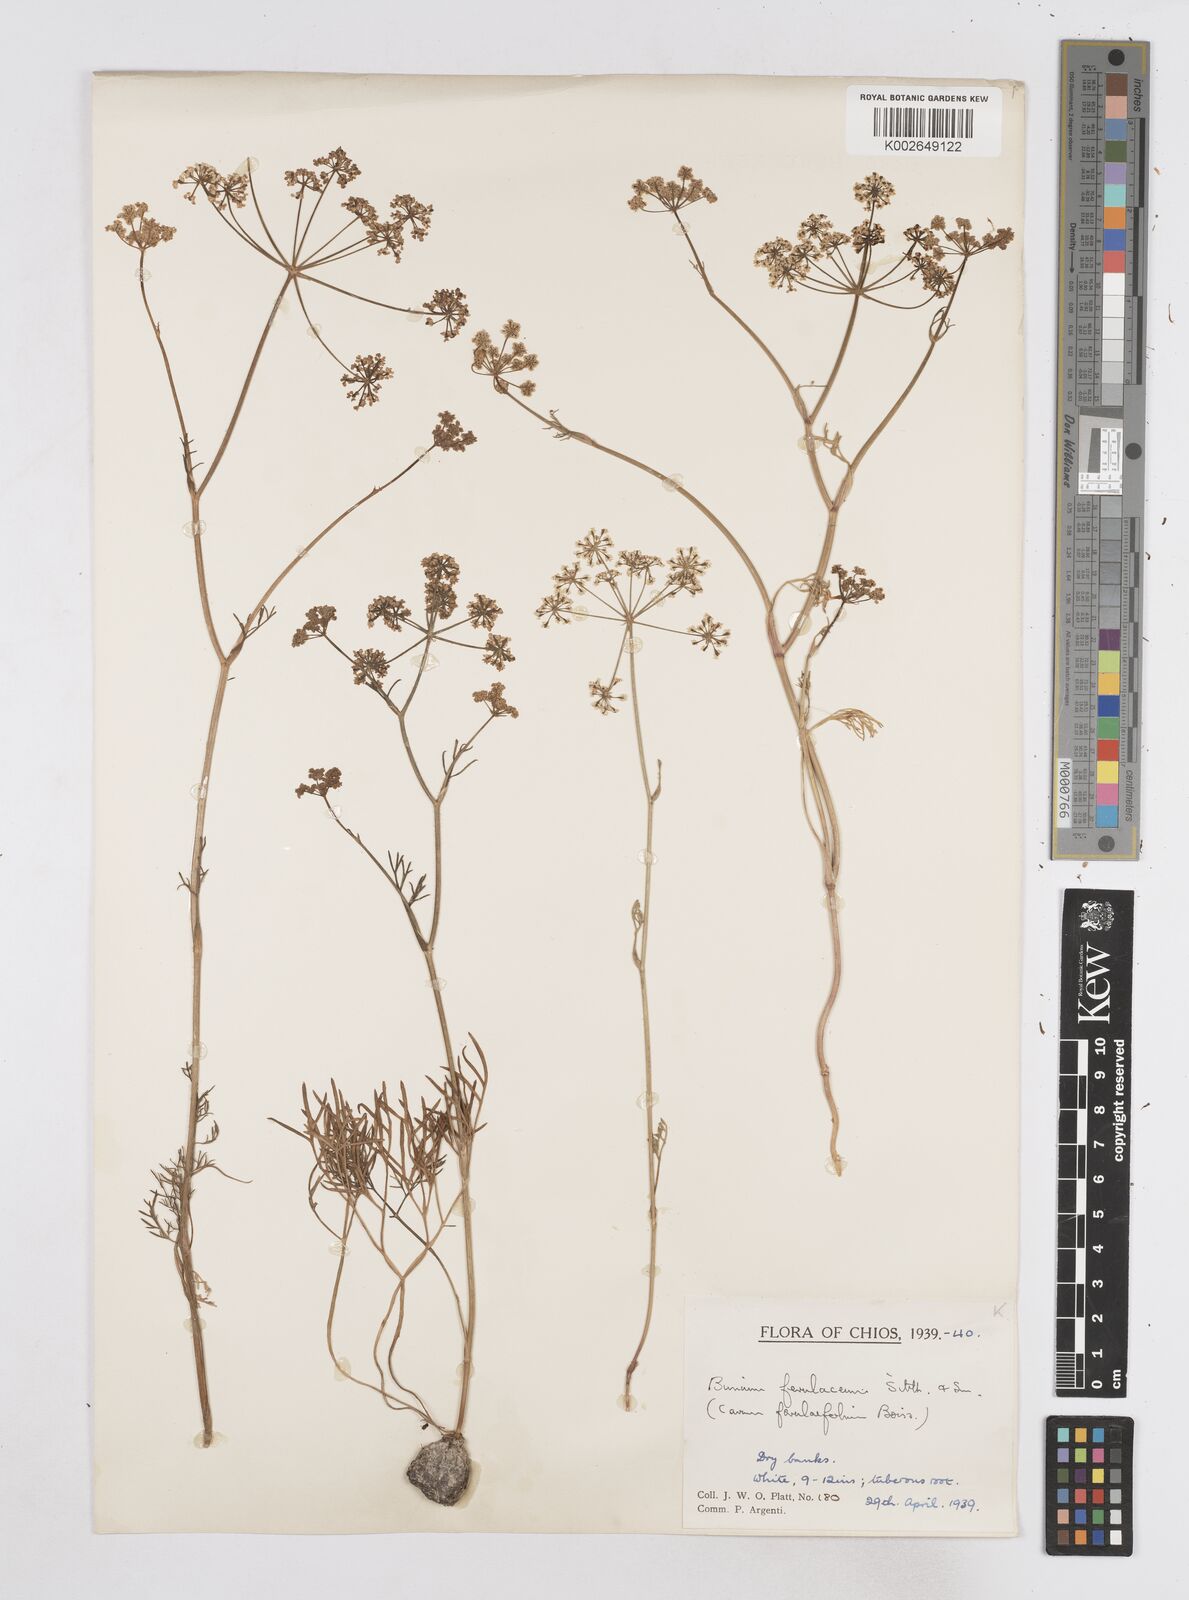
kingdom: Plantae
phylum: Tracheophyta
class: Magnoliopsida
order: Apiales
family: Apiaceae
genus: Bunium
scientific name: Bunium ferulaceum
